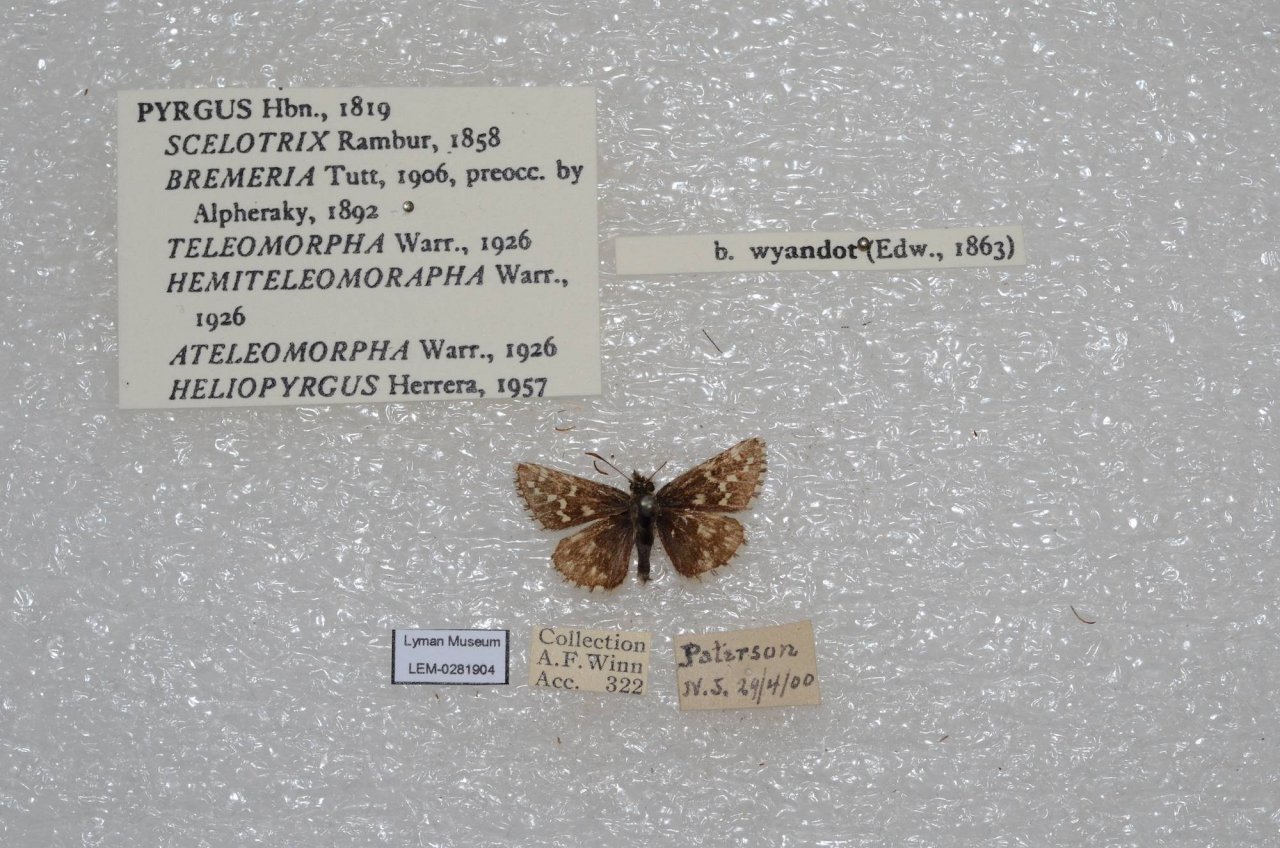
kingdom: Animalia
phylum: Arthropoda
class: Insecta
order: Lepidoptera
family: Hesperiidae
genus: Anisochoria
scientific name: Anisochoria pedaliodina
